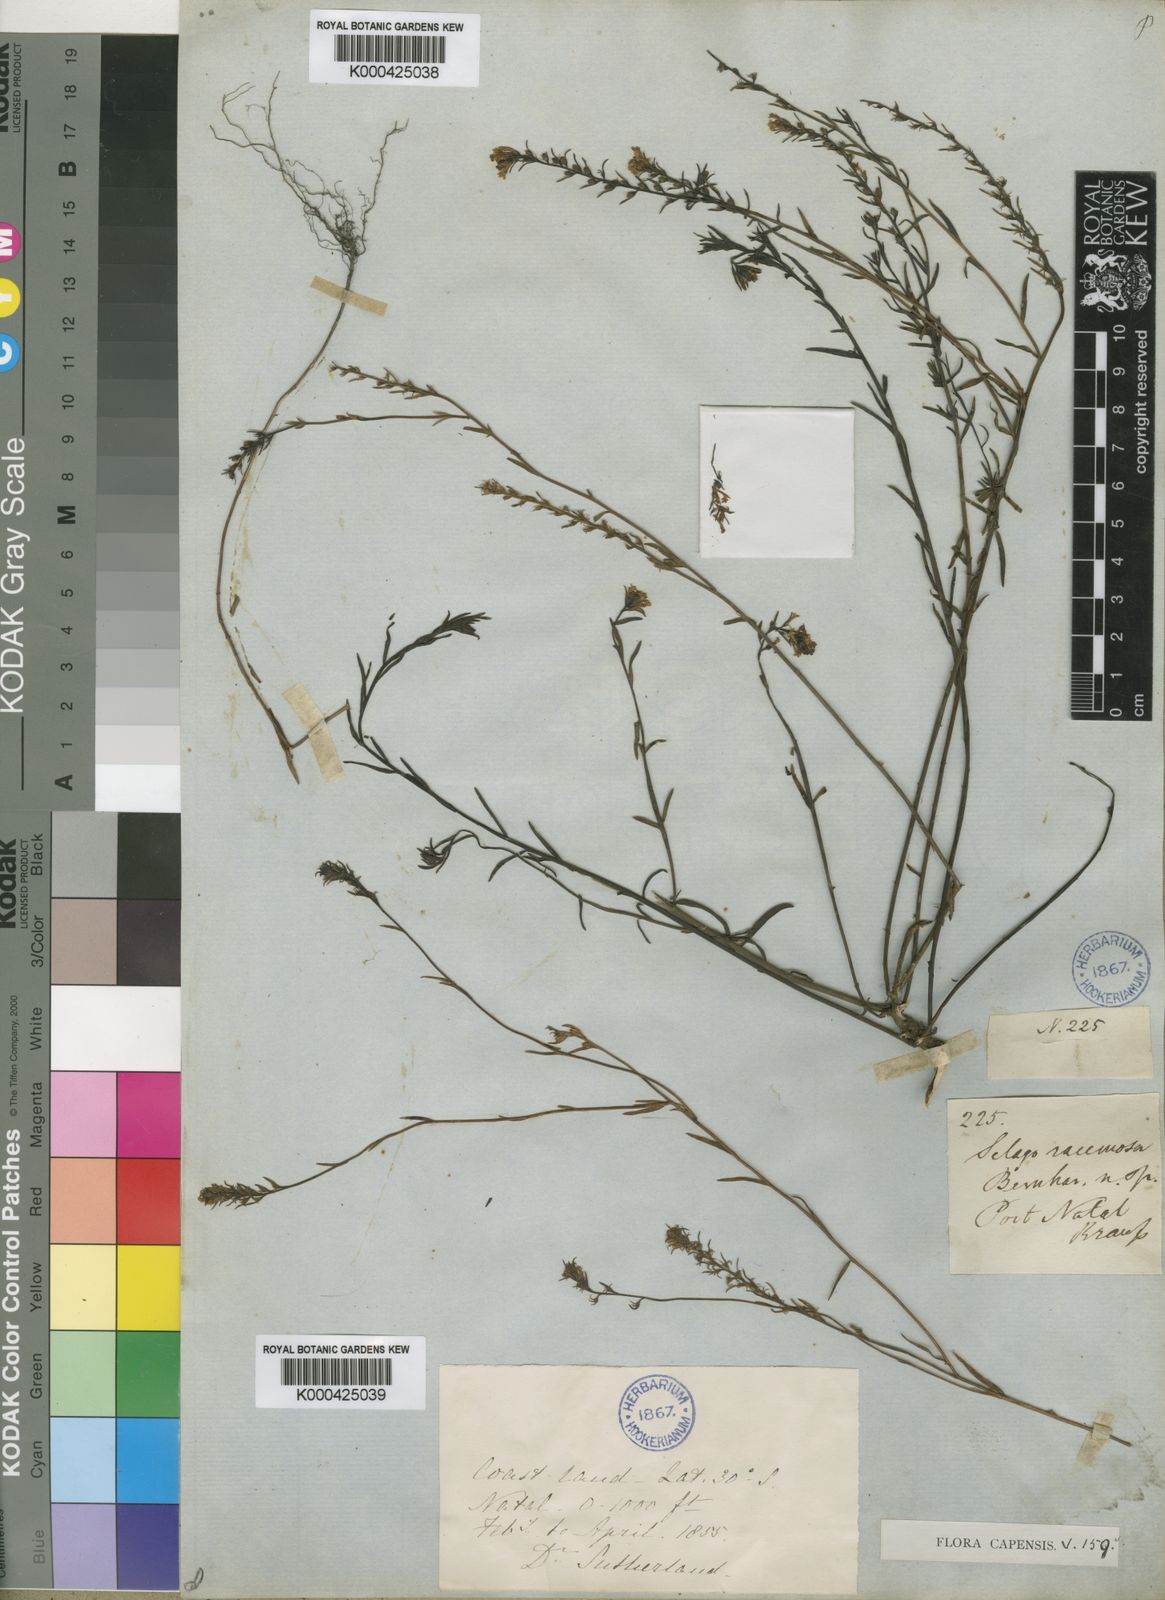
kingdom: Plantae
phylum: Tracheophyta
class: Magnoliopsida
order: Lamiales
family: Scrophulariaceae
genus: Selago
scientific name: Selago trinervia
